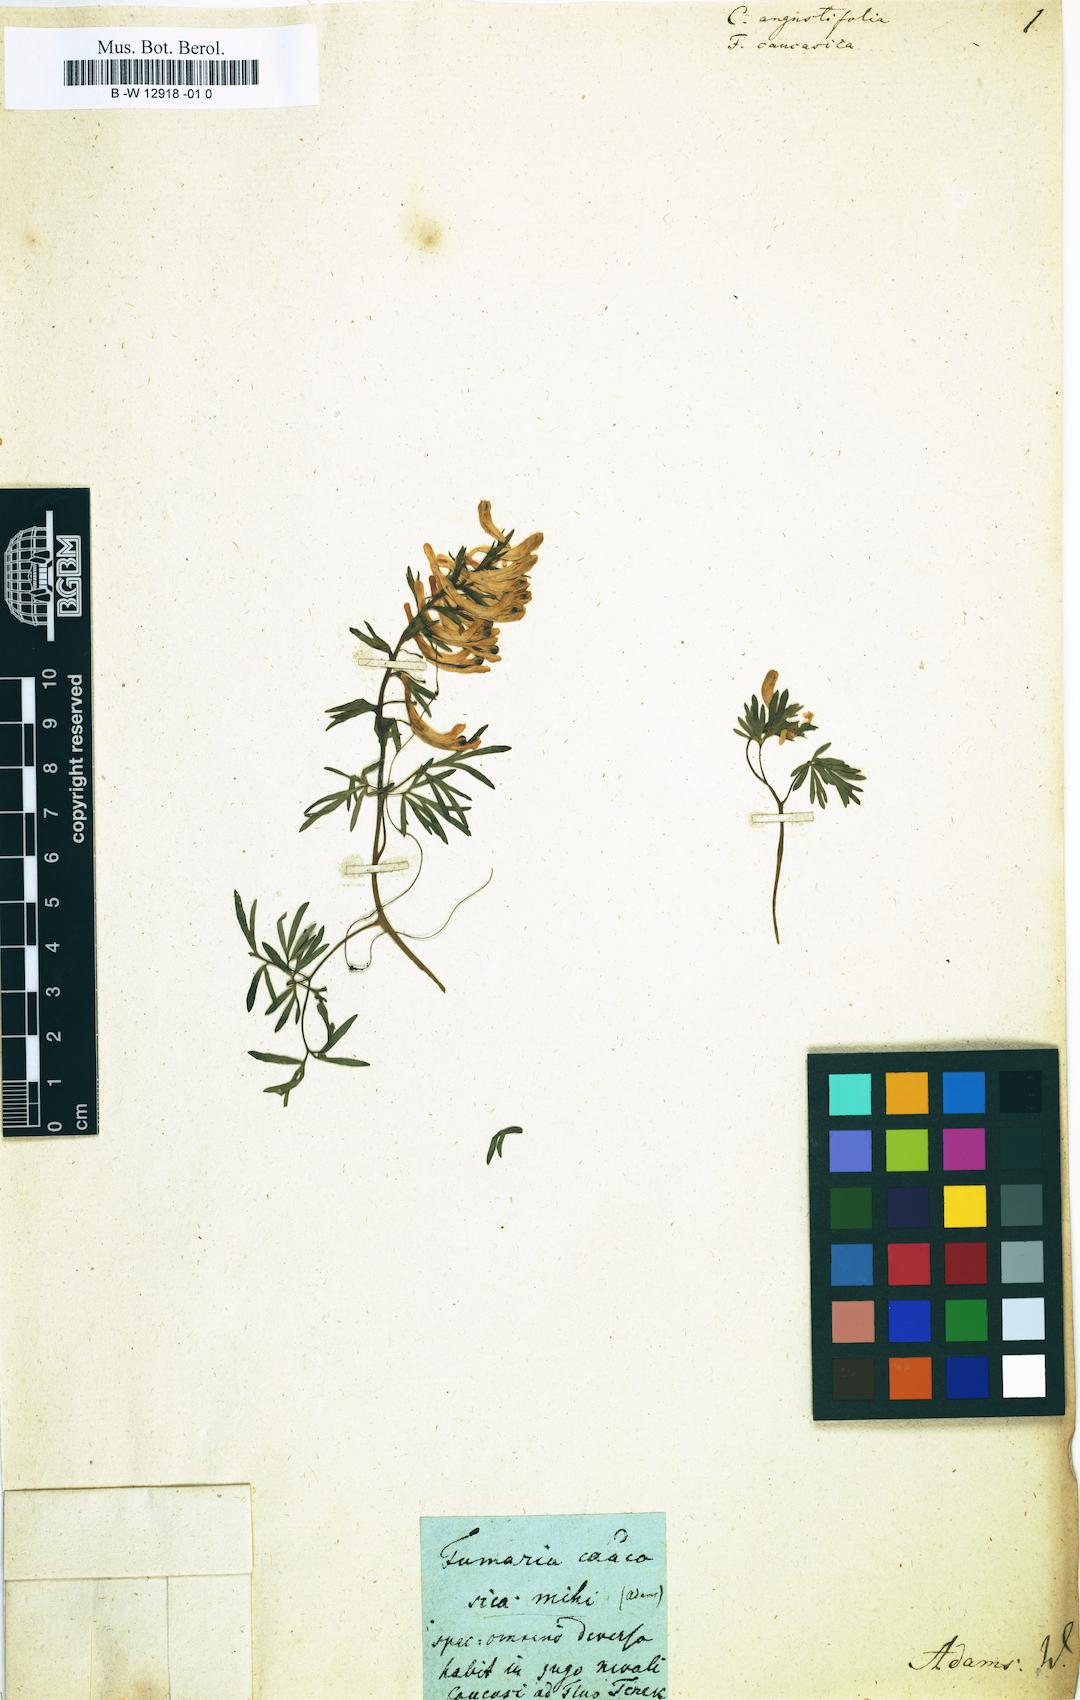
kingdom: Plantae
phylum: Tracheophyta
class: Magnoliopsida
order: Ranunculales
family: Papaveraceae
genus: Fumaria
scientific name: Fumaria caucasica
